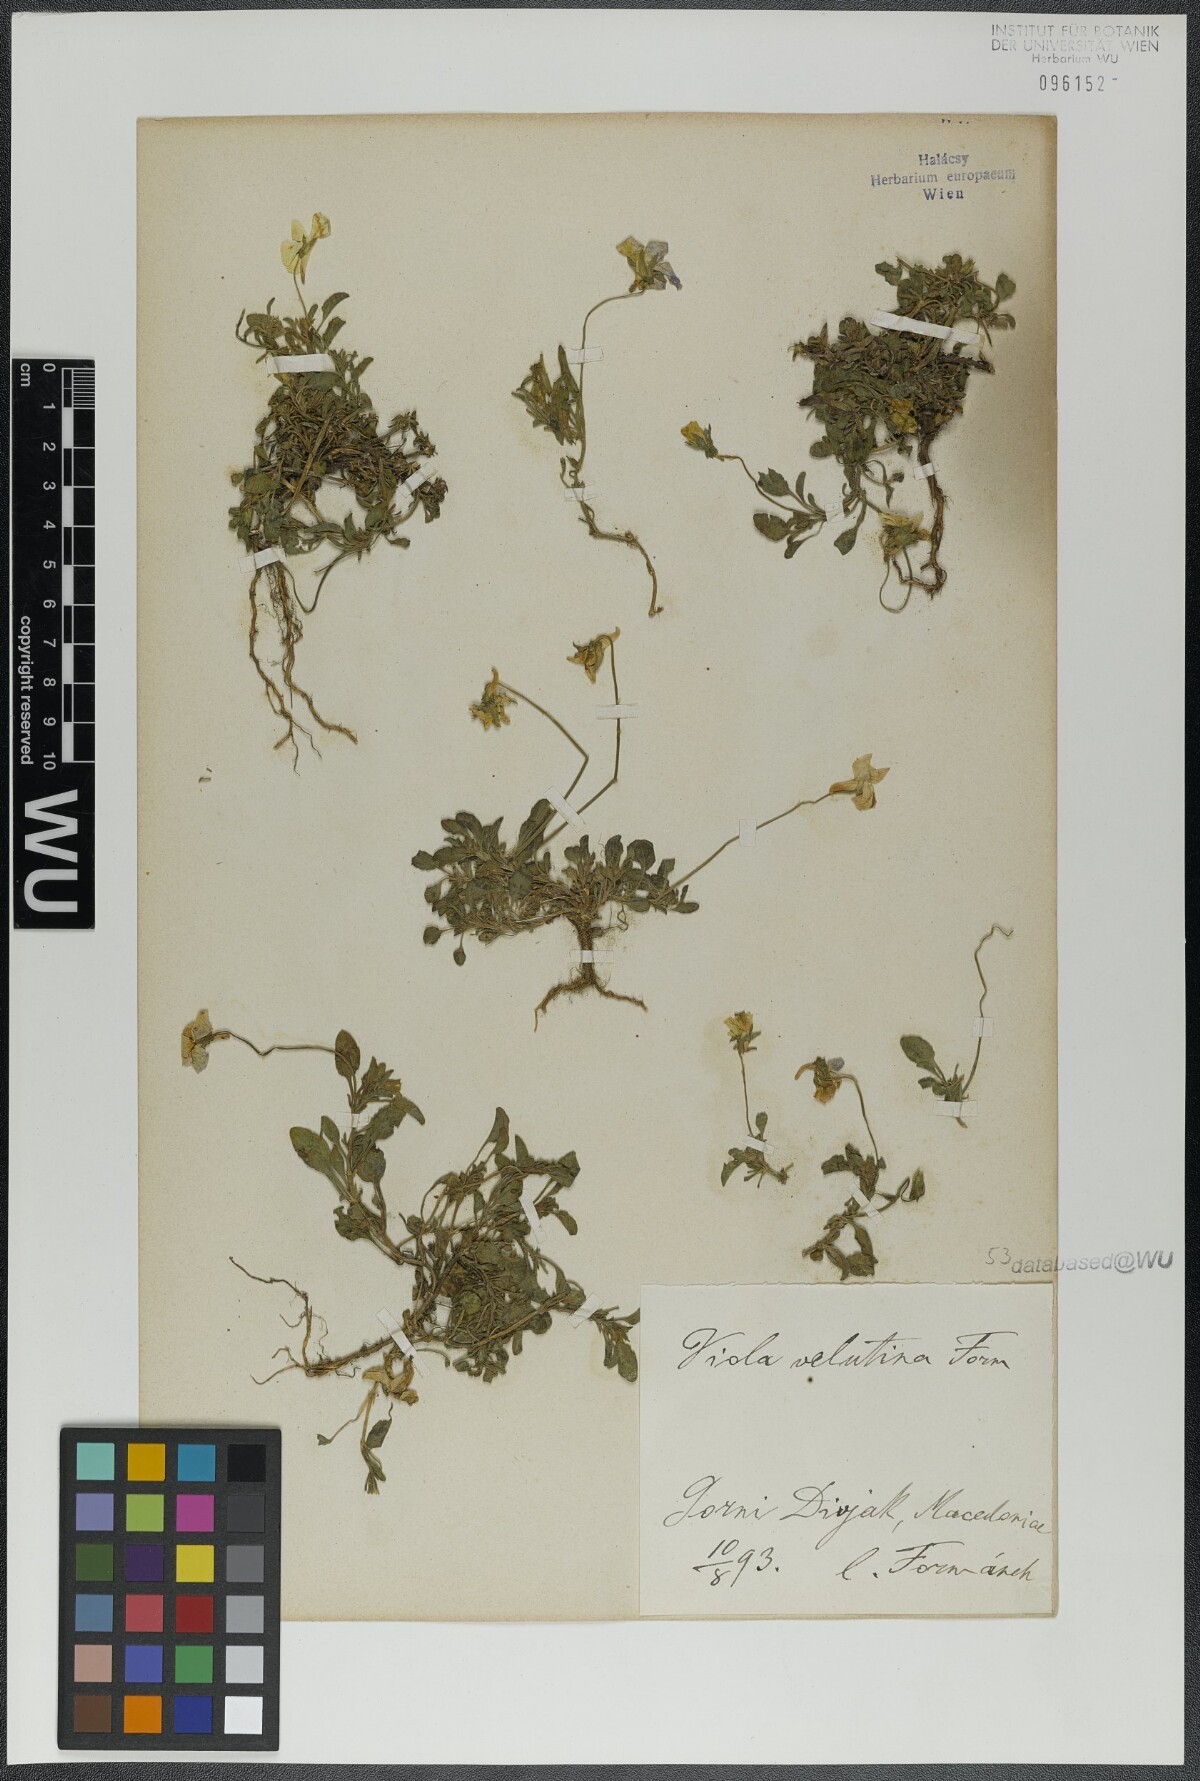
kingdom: Plantae
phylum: Tracheophyta
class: Magnoliopsida
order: Malpighiales
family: Violaceae
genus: Viola
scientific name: Viola velutina
